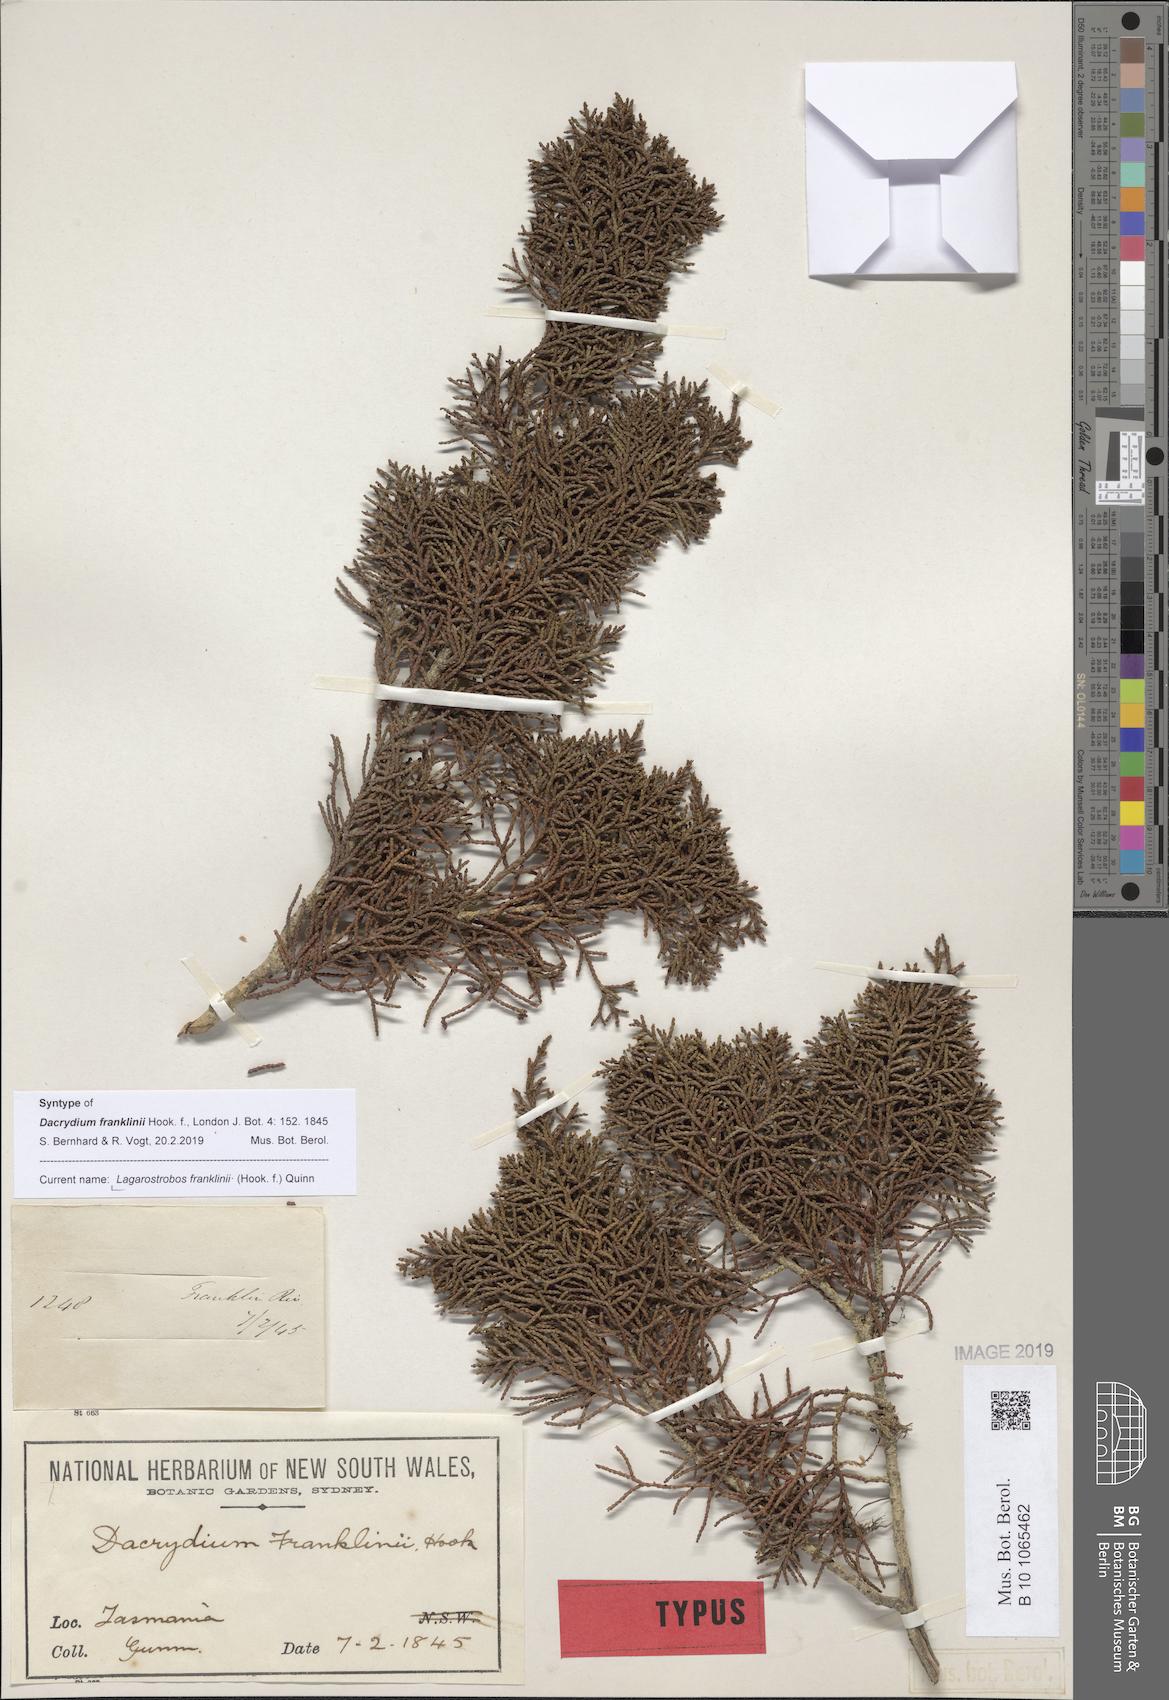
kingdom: Plantae
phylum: Tracheophyta
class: Pinopsida
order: Pinales
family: Podocarpaceae
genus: Lagarostrobos
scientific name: Lagarostrobos franklinii
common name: Huon pine
